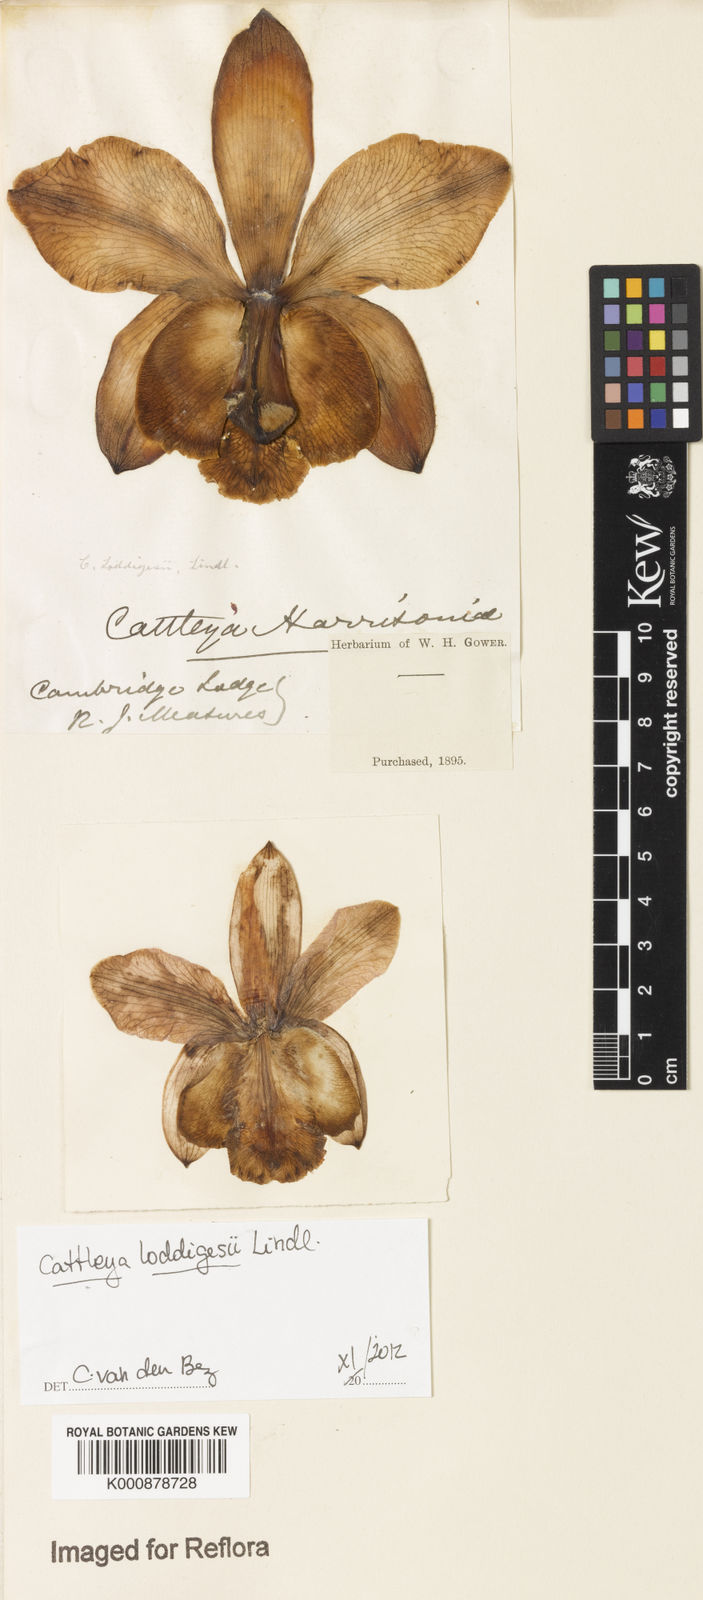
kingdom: Plantae
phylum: Tracheophyta
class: Liliopsida
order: Asparagales
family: Orchidaceae
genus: Cattleya
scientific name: Cattleya loddigesii
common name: Loddiges's cattleya
